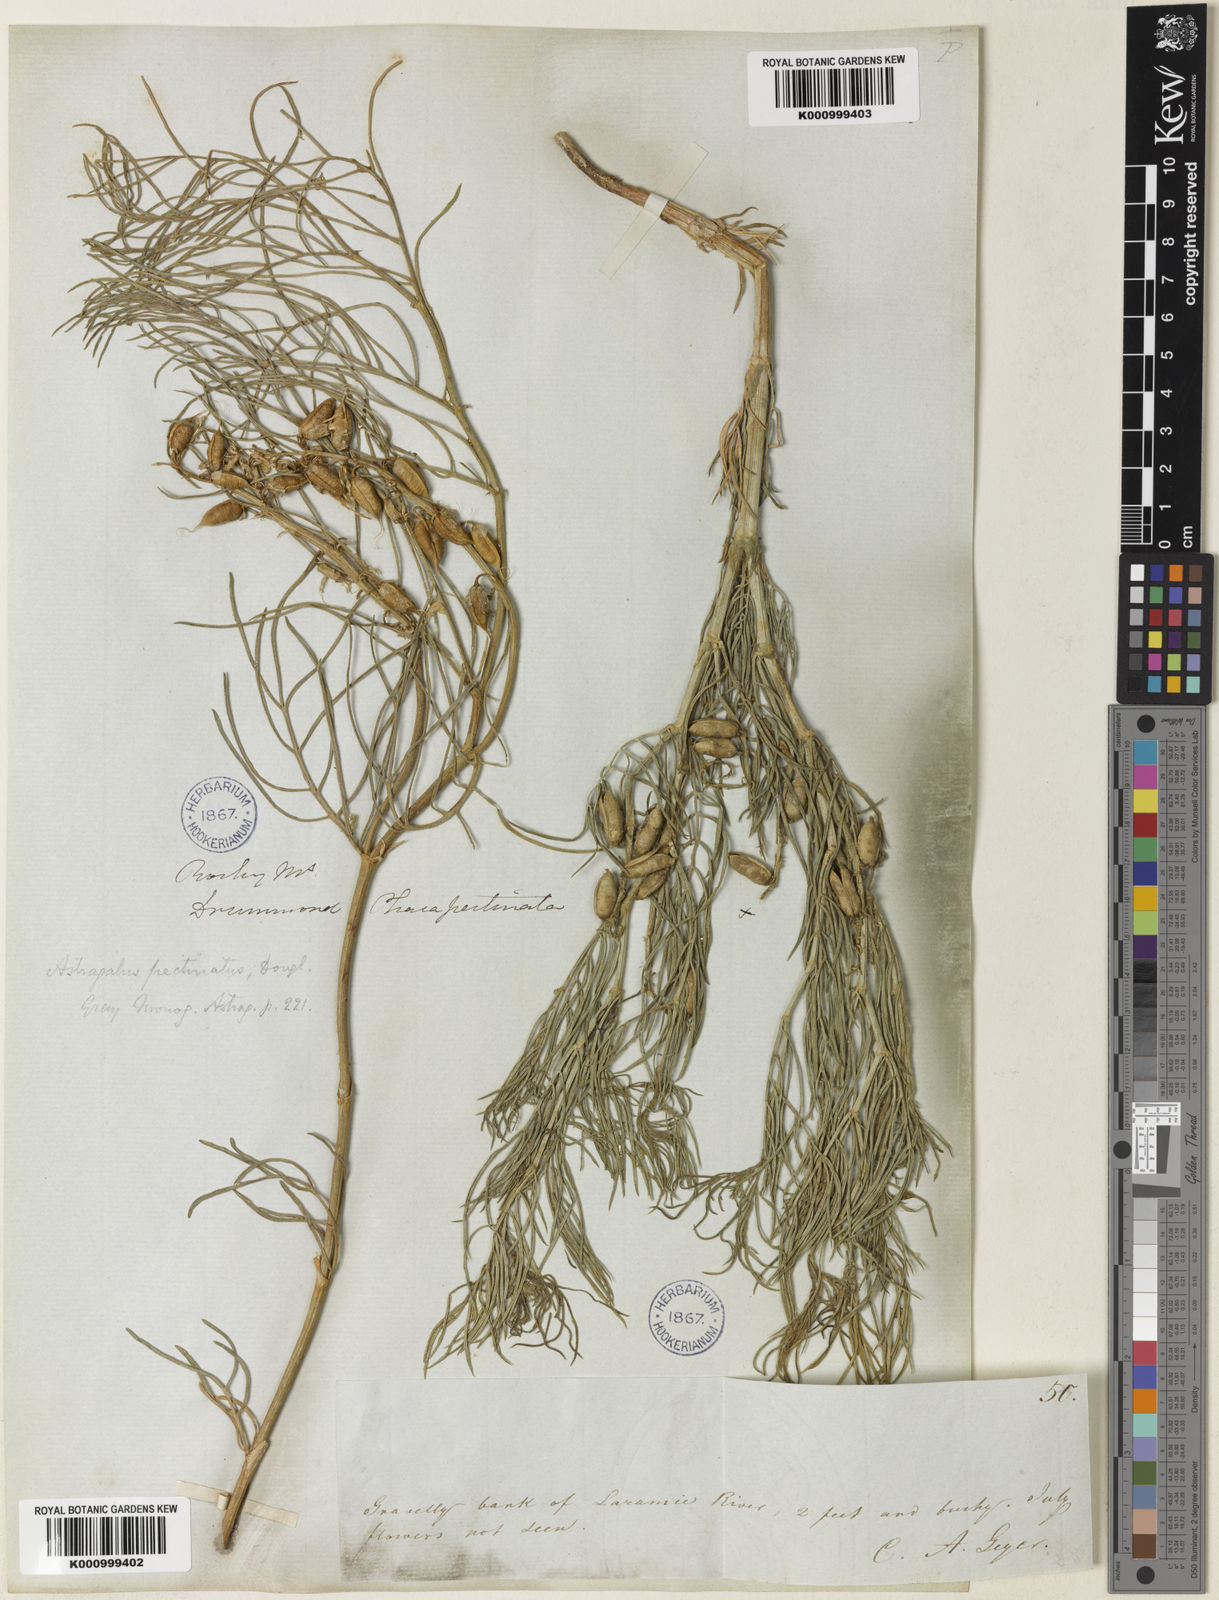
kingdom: Plantae
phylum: Tracheophyta
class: Magnoliopsida
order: Fabales
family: Fabaceae
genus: Astragalus
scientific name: Astragalus pectinatus
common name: Tine-leaf milk-vetch
